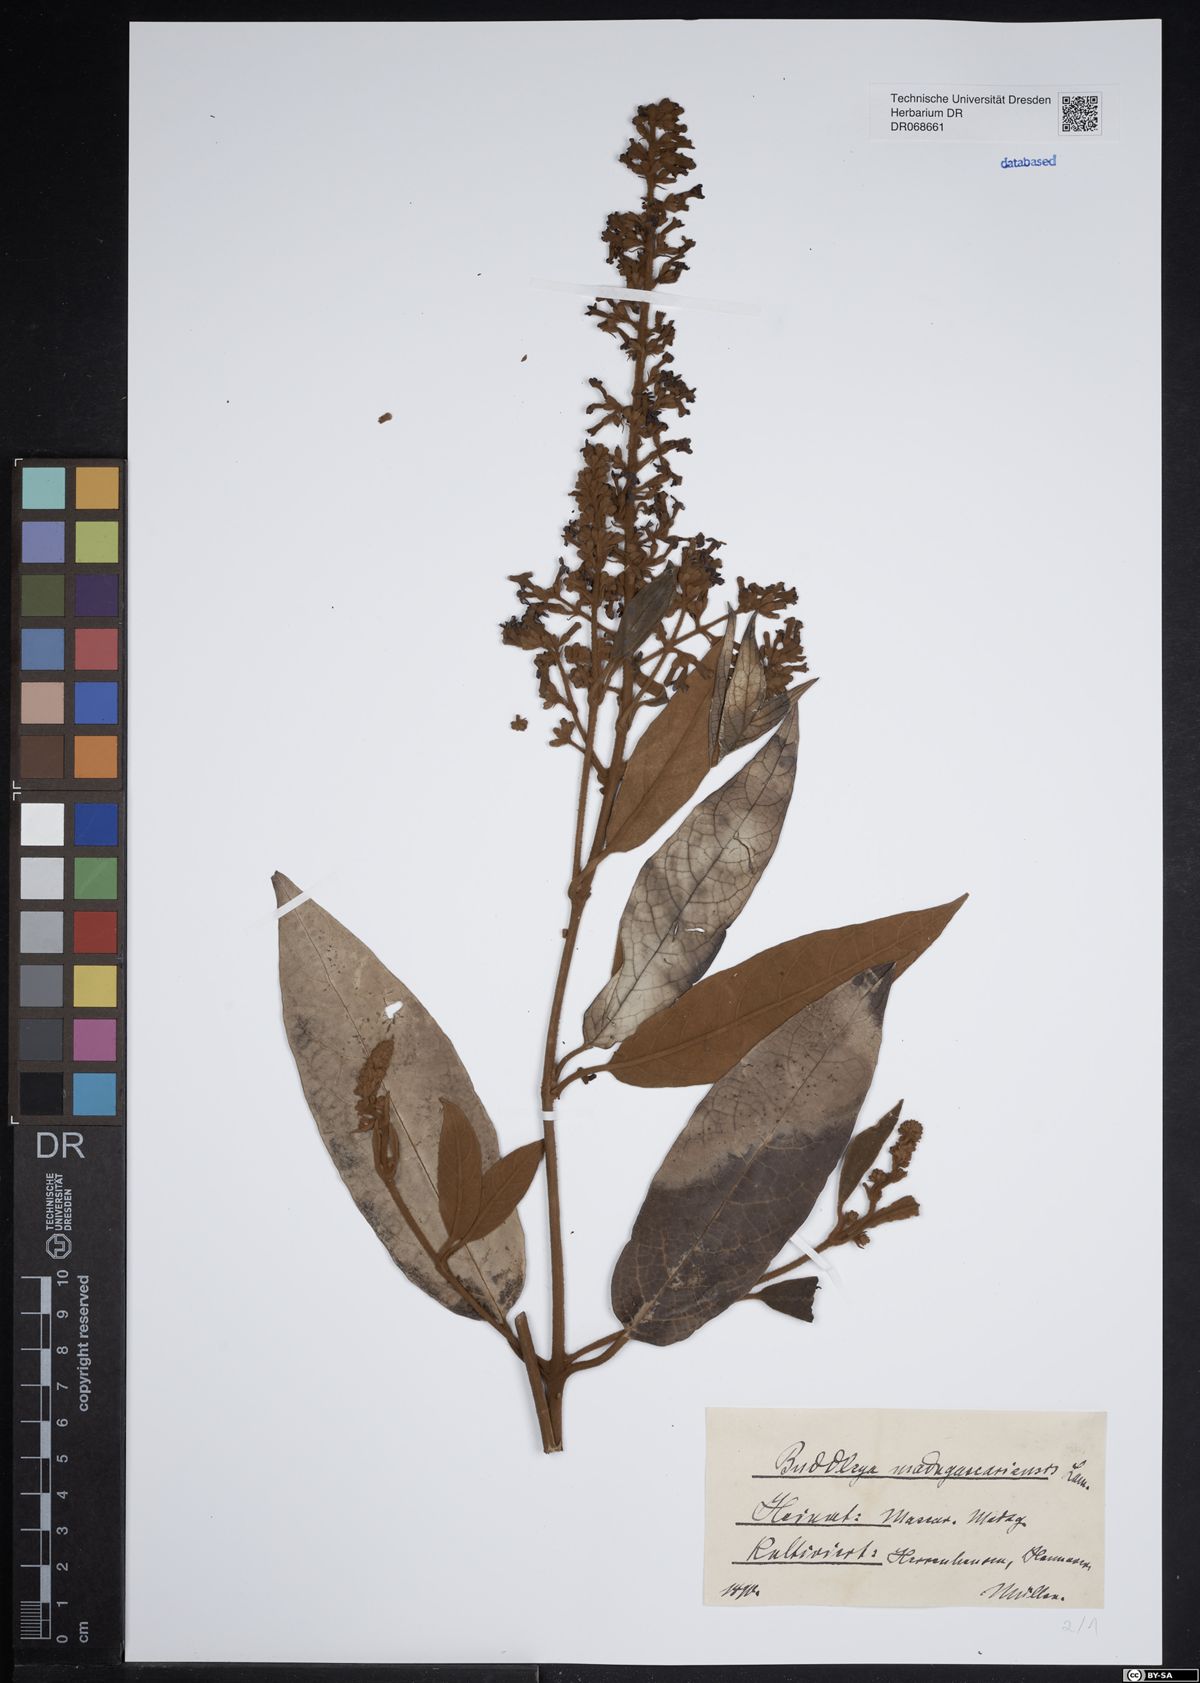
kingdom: Plantae
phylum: Tracheophyta
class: Magnoliopsida
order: Lamiales
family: Scrophulariaceae
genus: Buddleja
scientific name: Buddleja madagascariensis
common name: Smokebush
